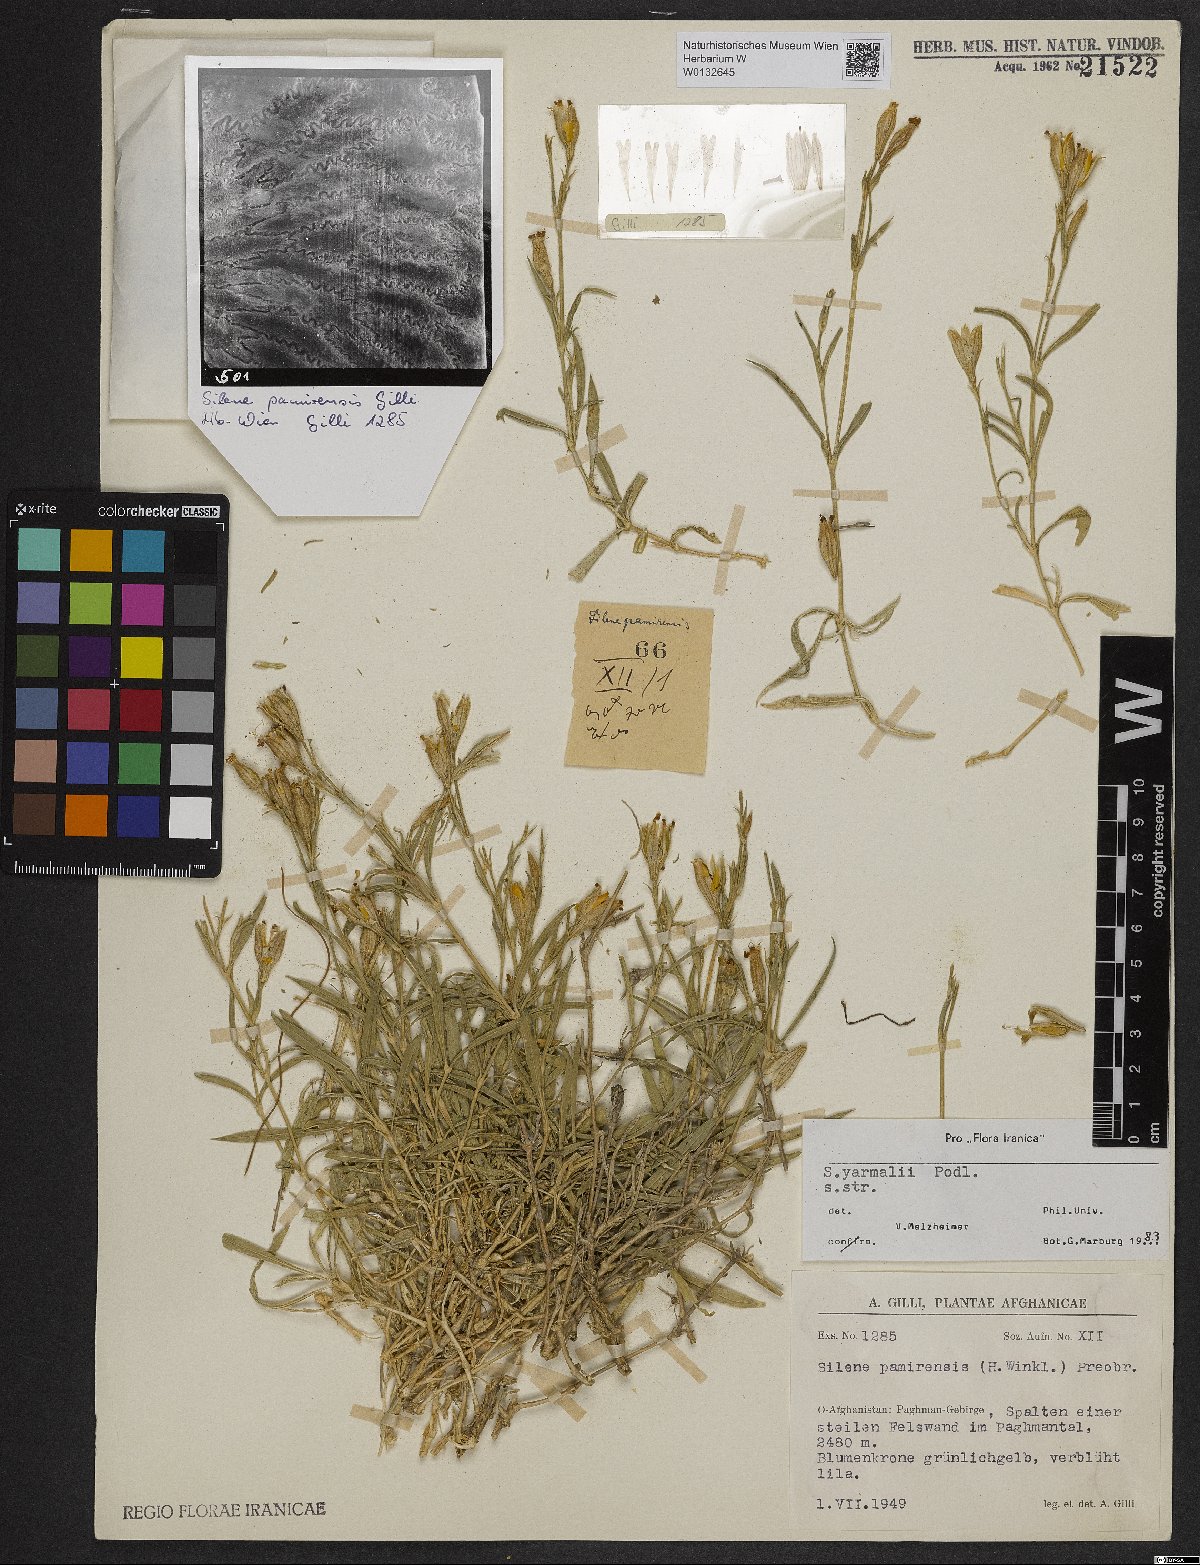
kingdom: Plantae
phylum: Tracheophyta
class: Magnoliopsida
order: Caryophyllales
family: Caryophyllaceae
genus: Silene
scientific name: Silene yarmalii
